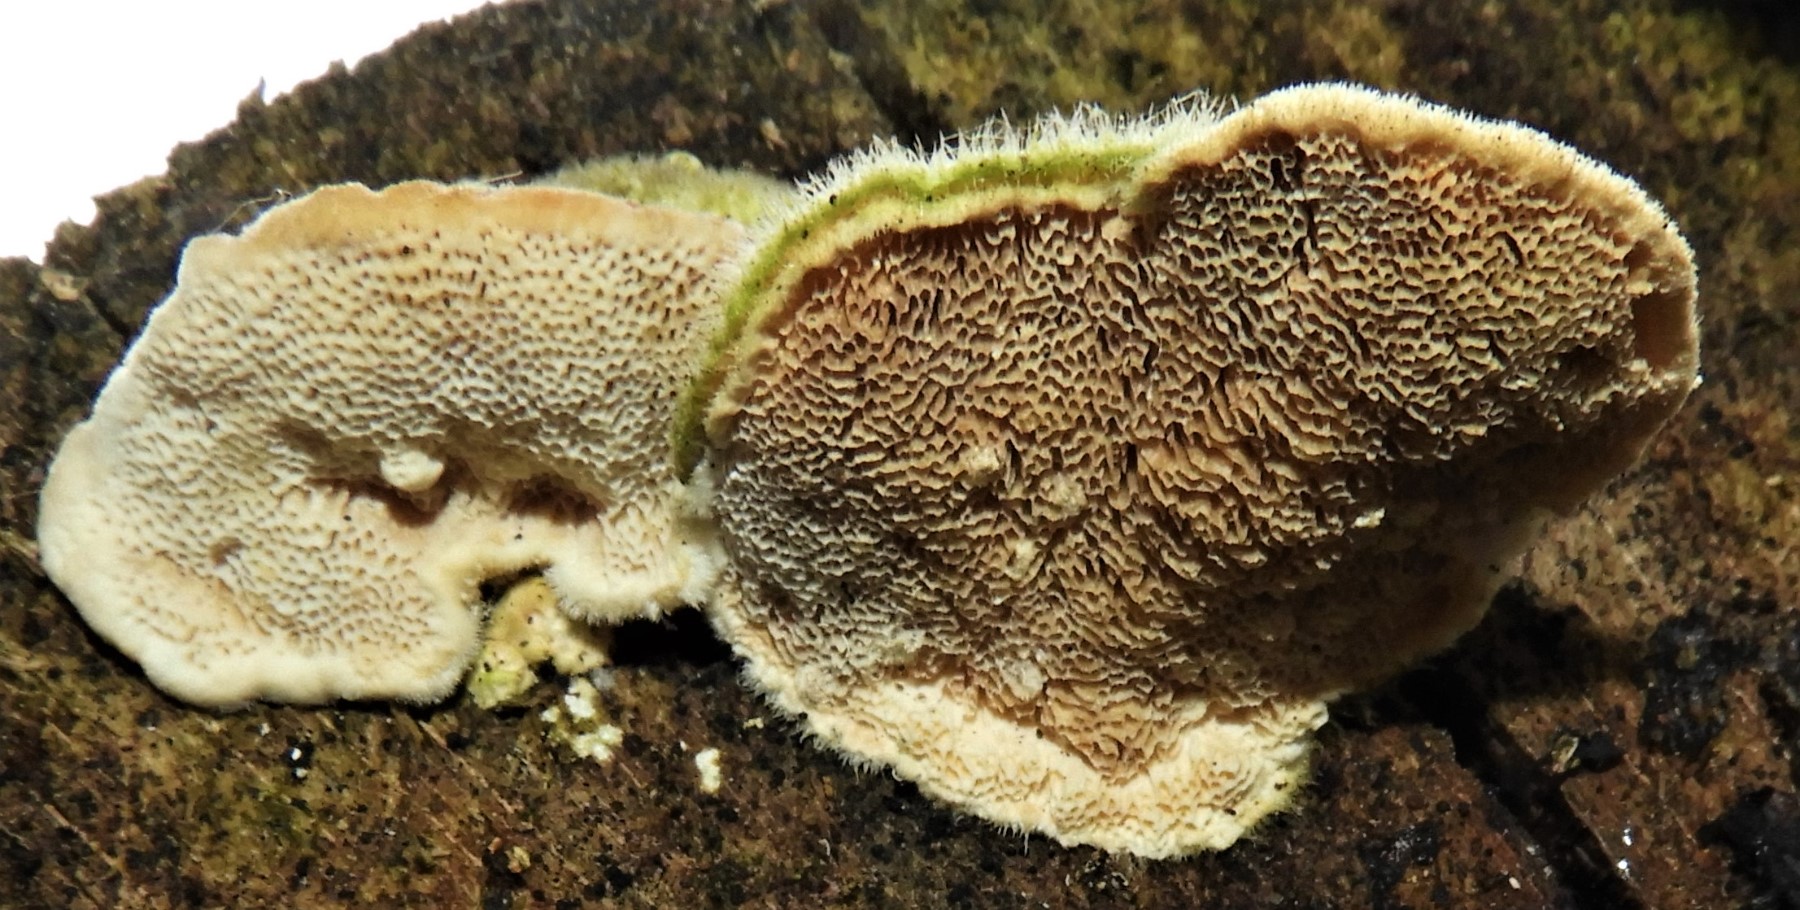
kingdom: Fungi
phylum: Basidiomycota
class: Agaricomycetes
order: Polyporales
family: Polyporaceae
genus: Trametes
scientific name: Trametes hirsuta
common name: håret læderporesvamp
